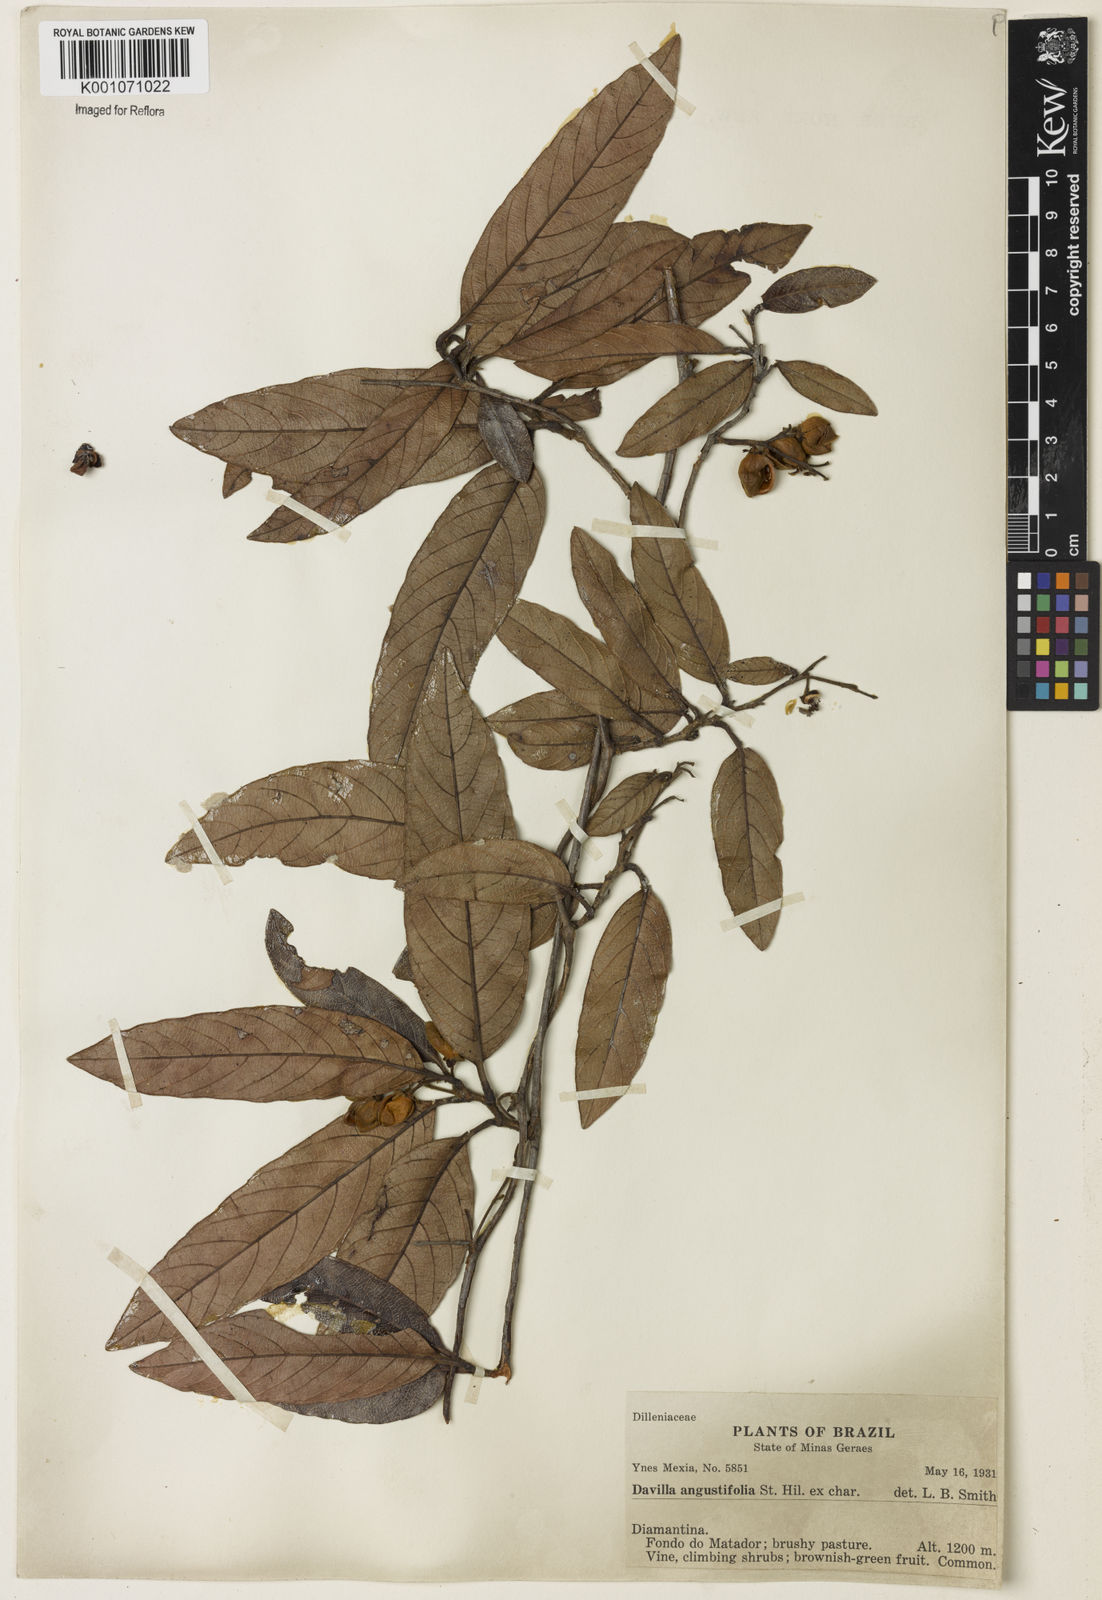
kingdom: Plantae
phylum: Tracheophyta
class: Magnoliopsida
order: Dilleniales
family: Dilleniaceae
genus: Davilla
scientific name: Davilla angustifolia
